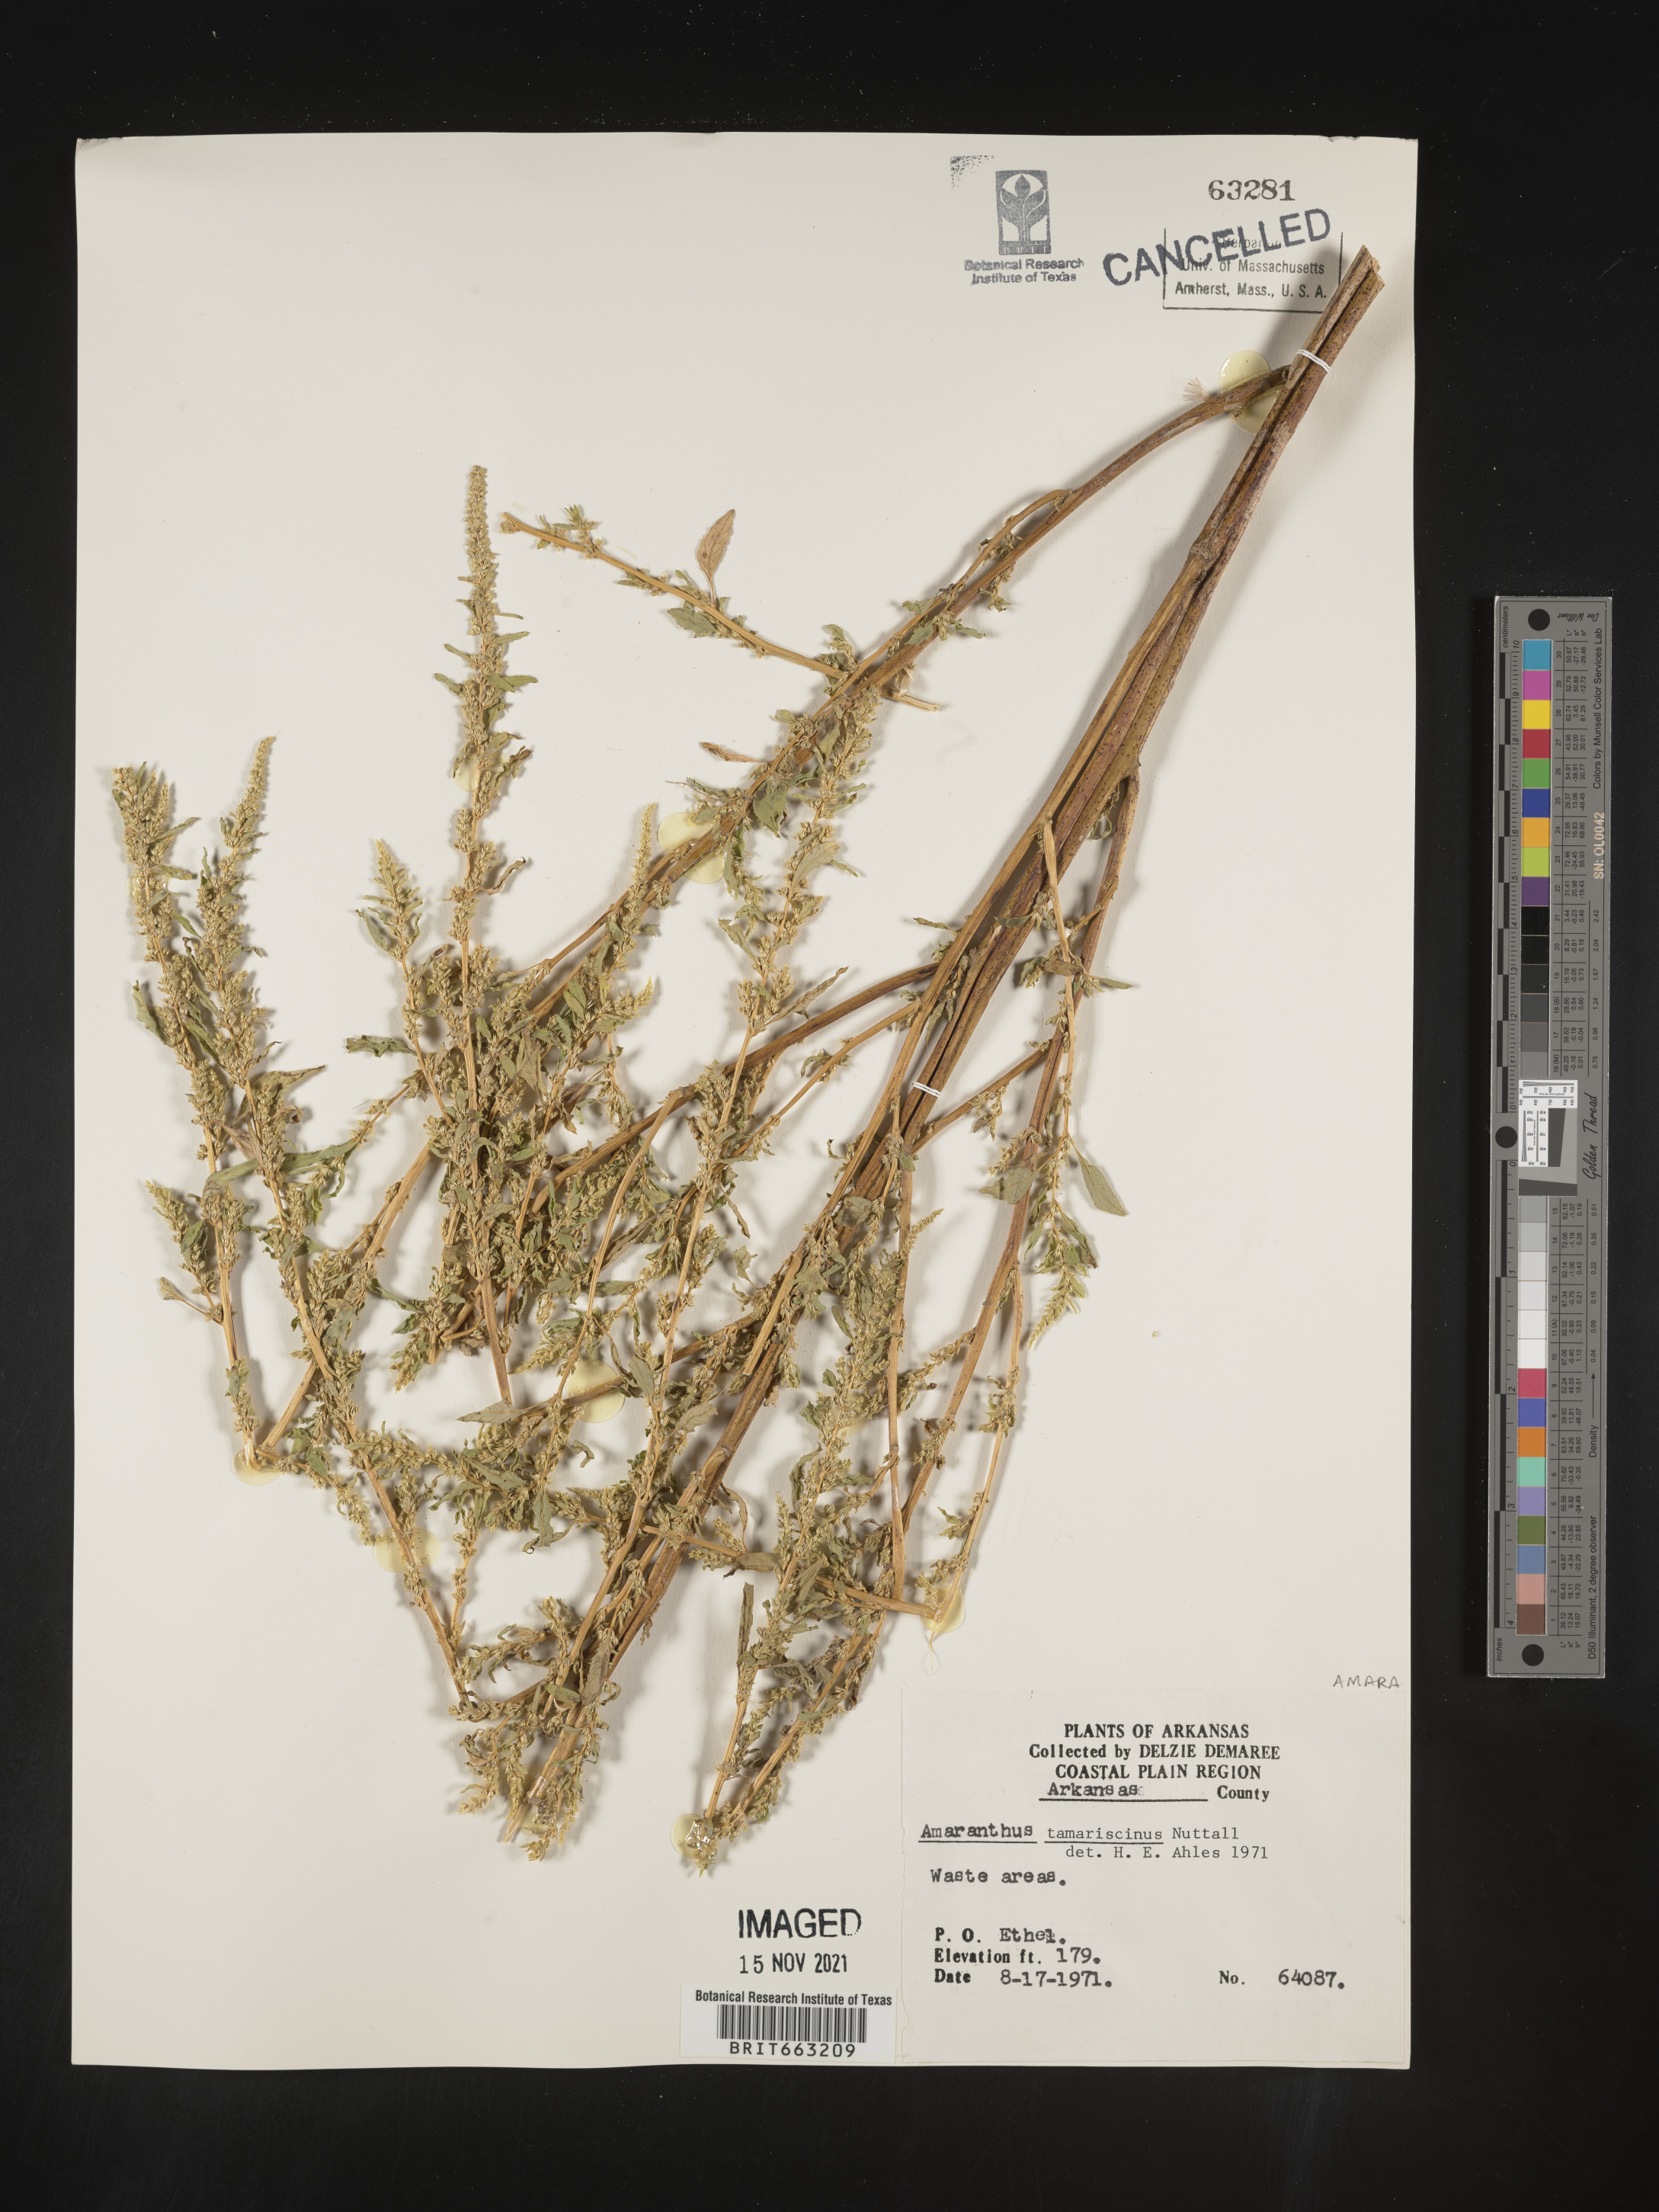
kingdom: Plantae
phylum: Tracheophyta
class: Magnoliopsida
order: Caryophyllales
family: Amaranthaceae
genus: Amaranthus
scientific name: Amaranthus tamariscinus
